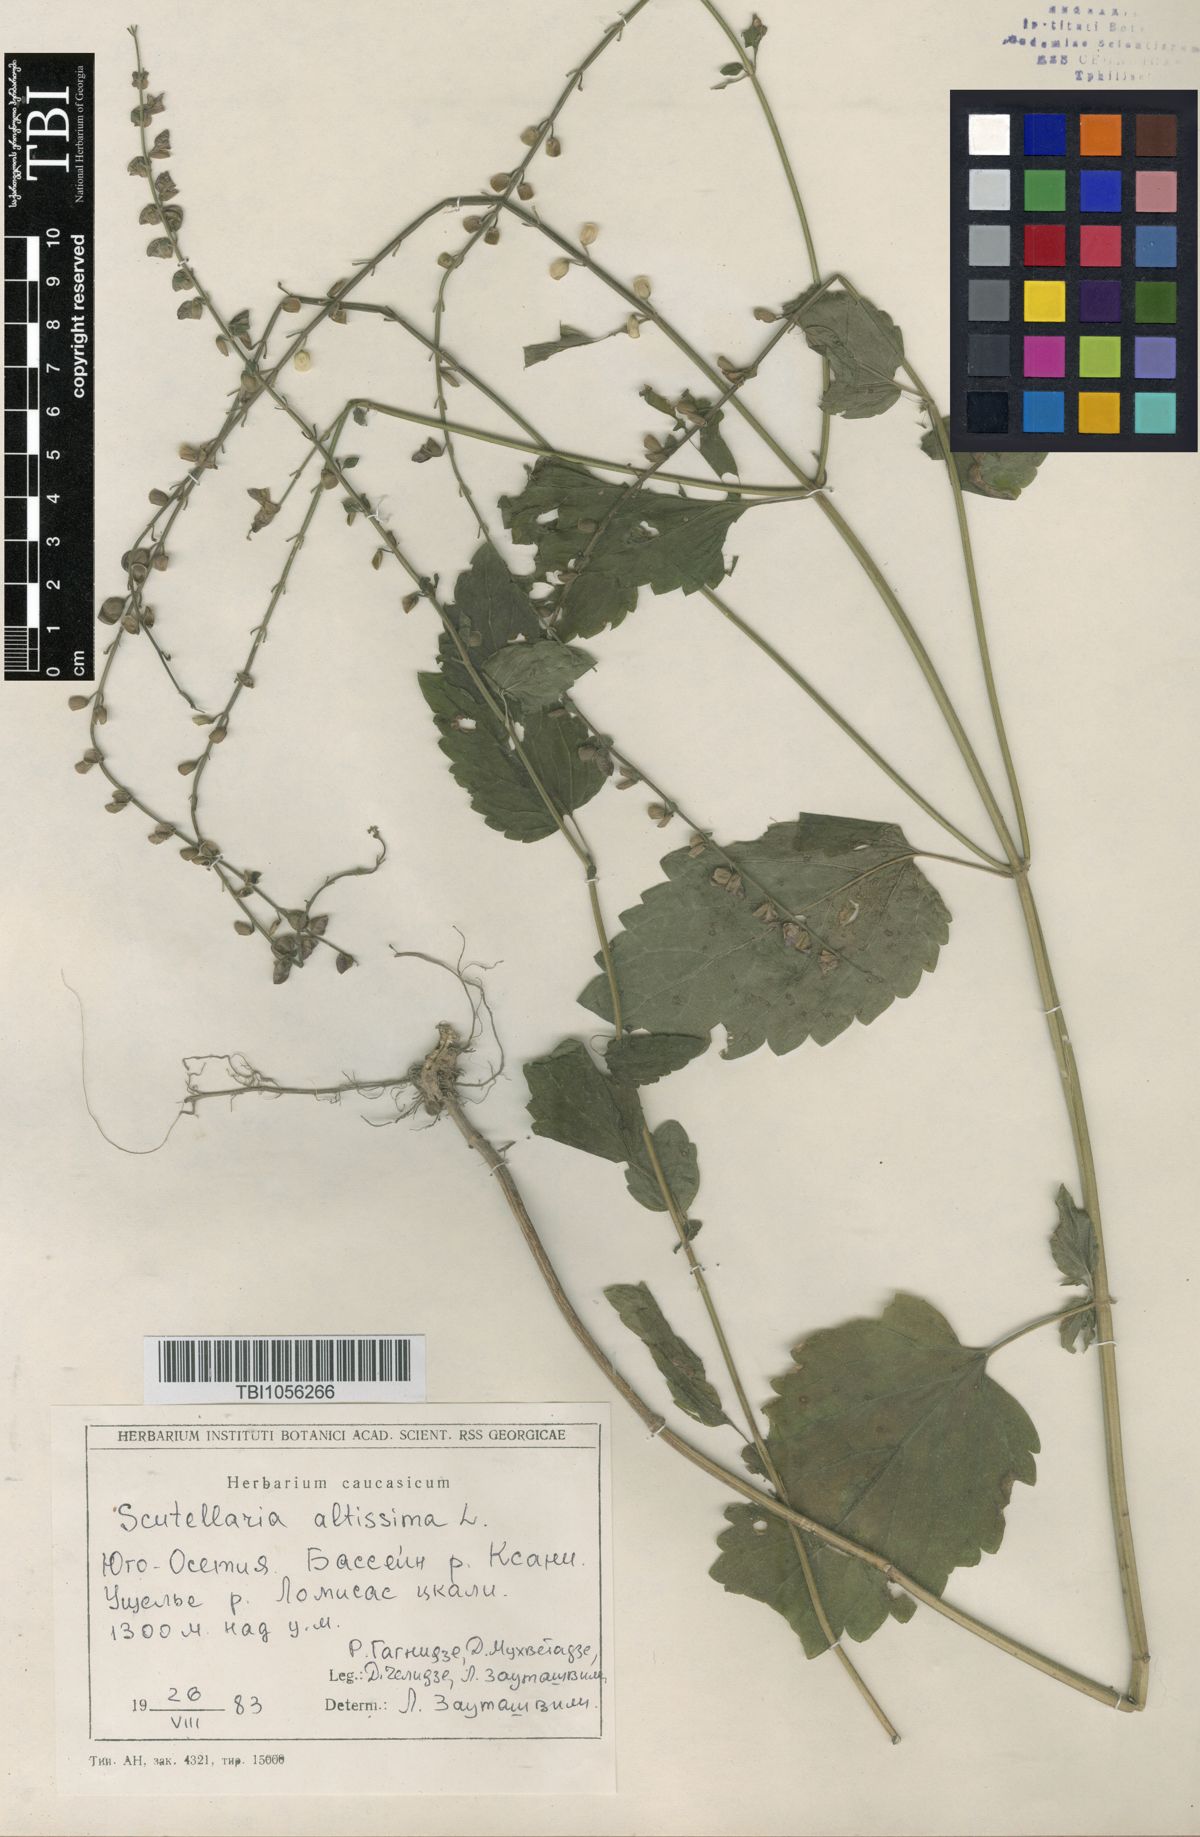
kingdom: Plantae
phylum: Tracheophyta
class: Magnoliopsida
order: Lamiales
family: Lamiaceae
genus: Scutellaria
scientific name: Scutellaria altissima
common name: Somerset skullcap
